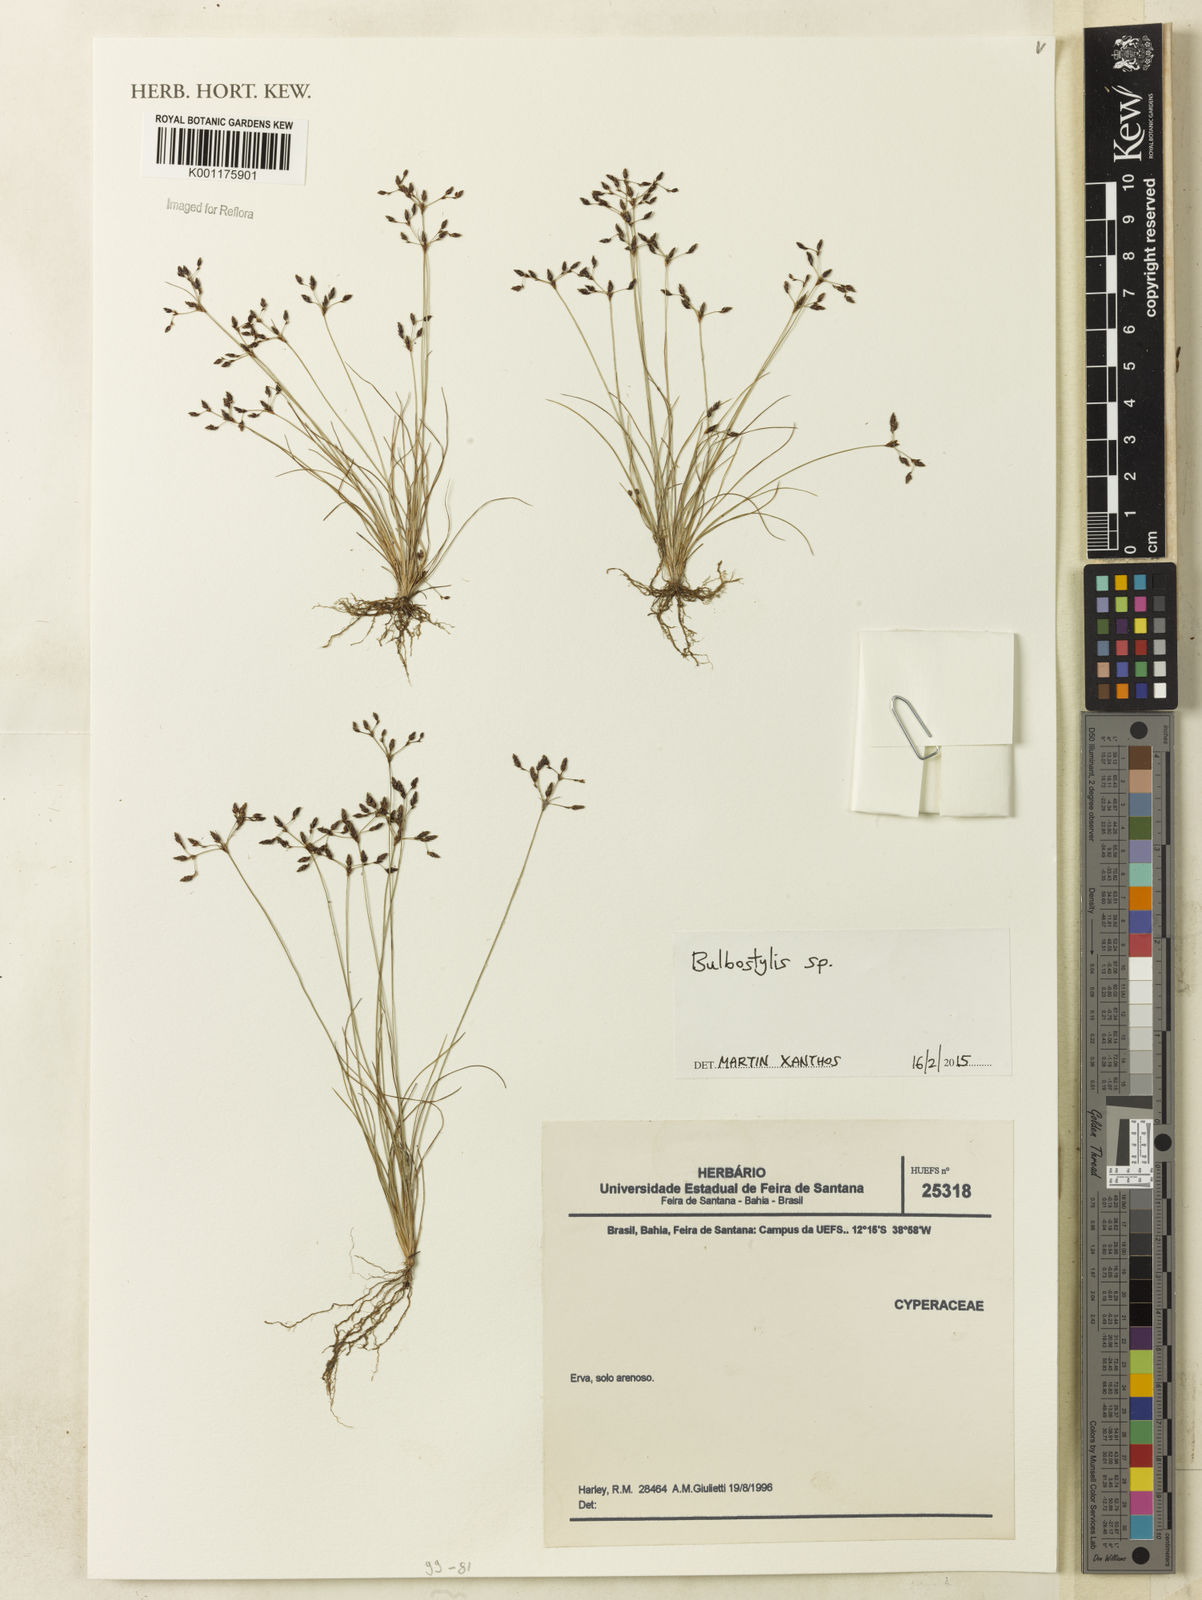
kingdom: Plantae
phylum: Tracheophyta
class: Liliopsida
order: Poales
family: Cyperaceae
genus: Bulbostylis
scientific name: Bulbostylis
